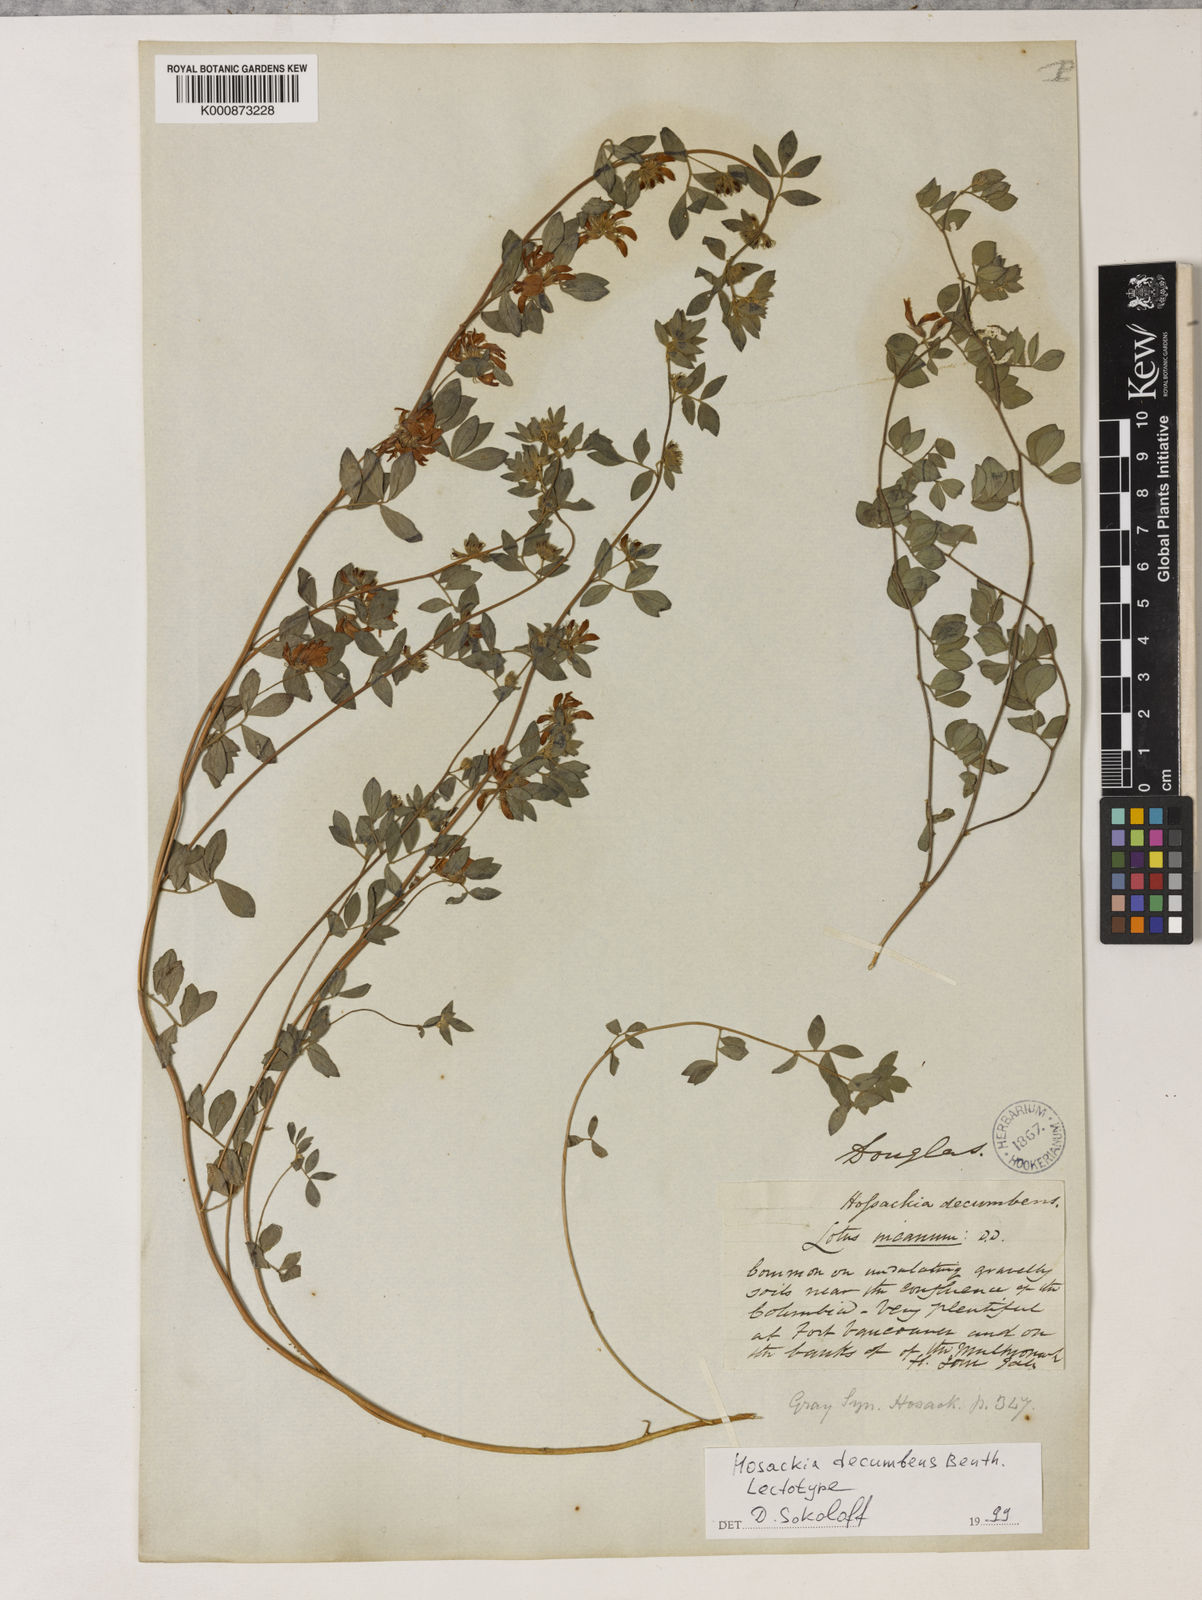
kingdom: Plantae
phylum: Tracheophyta
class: Magnoliopsida
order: Fabales
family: Fabaceae
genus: Acmispon
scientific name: Acmispon decumbens
